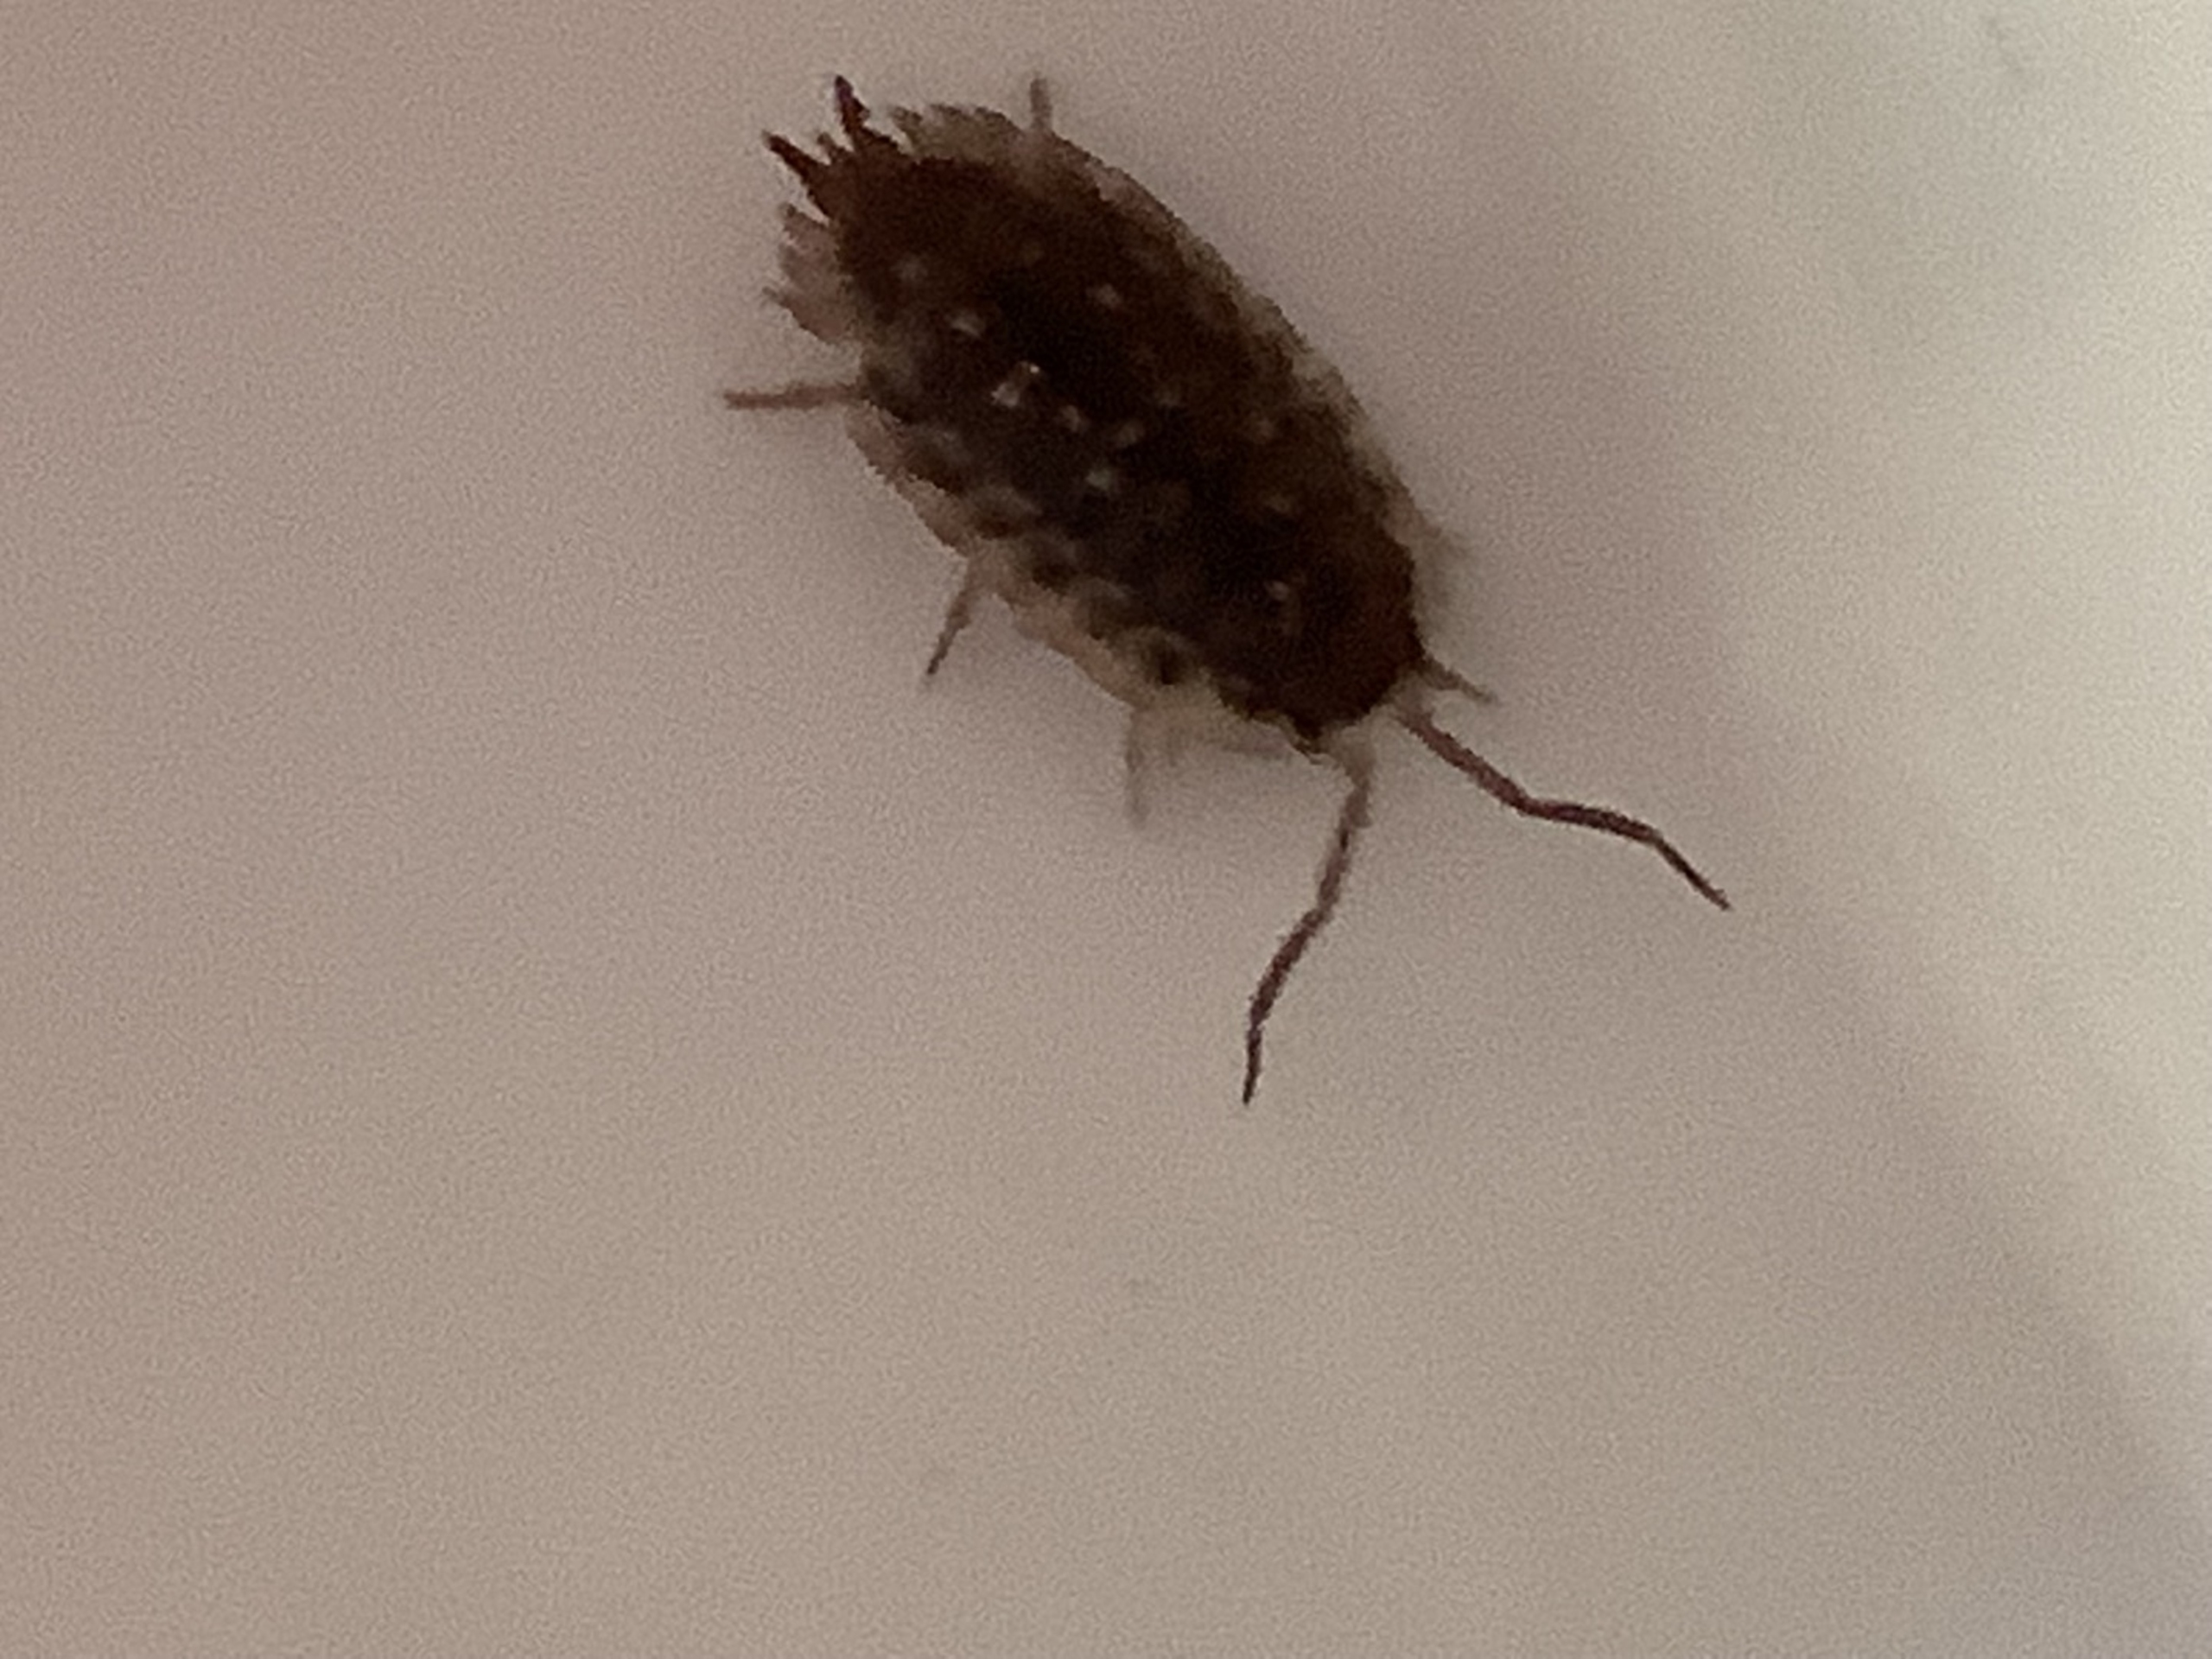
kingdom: Animalia
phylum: Arthropoda
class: Malacostraca
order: Isopoda
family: Oniscidae
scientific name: Oniscidae
